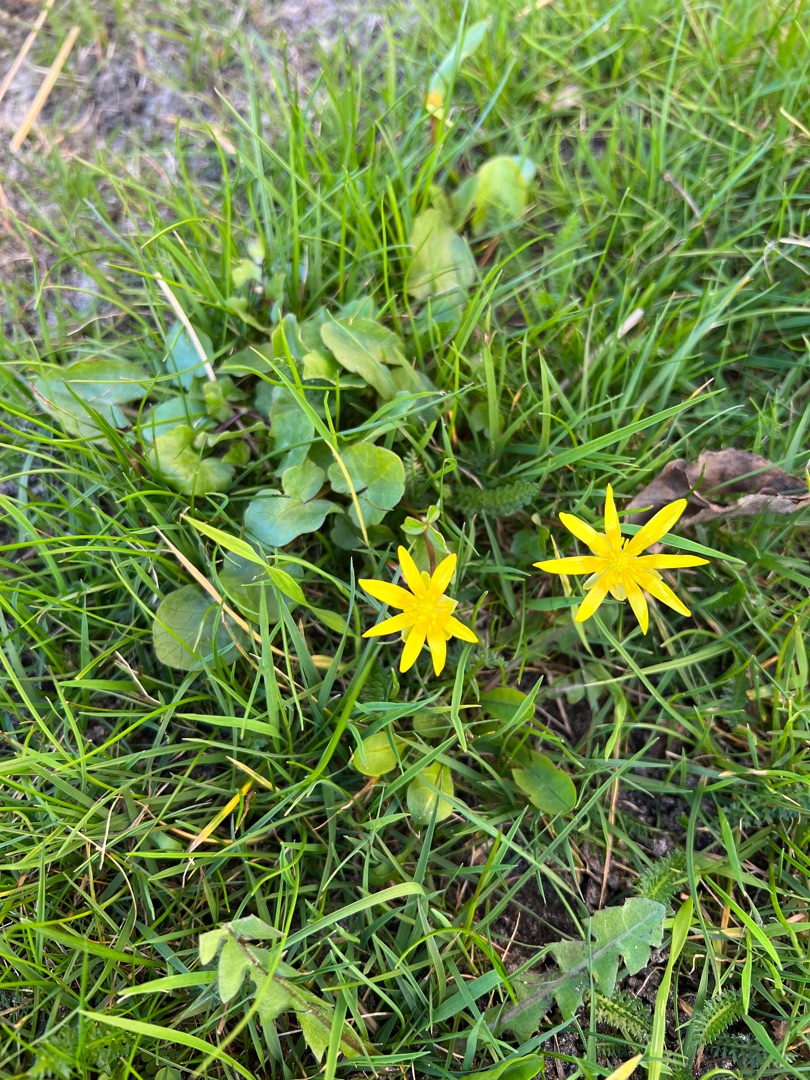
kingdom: Plantae
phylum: Tracheophyta
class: Magnoliopsida
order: Ranunculales
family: Ranunculaceae
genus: Ficaria
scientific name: Ficaria verna
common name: Vorterod
